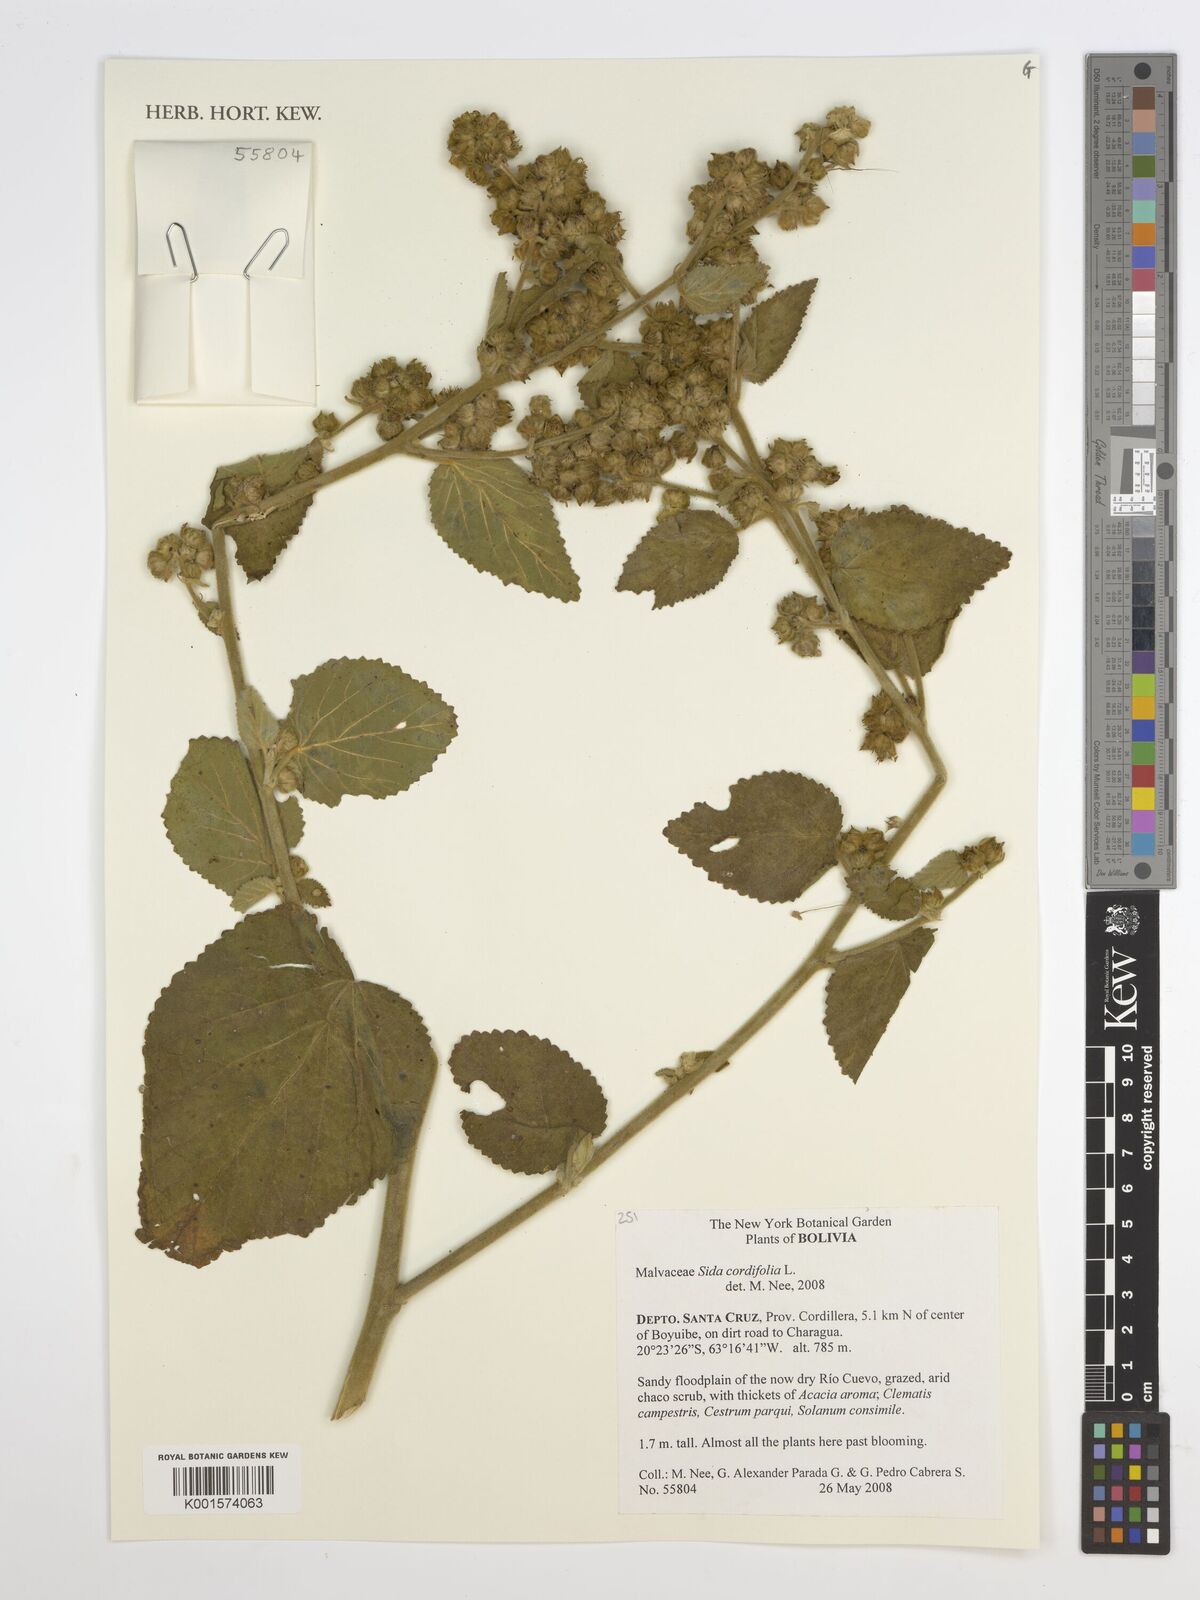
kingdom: Plantae
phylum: Tracheophyta
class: Magnoliopsida
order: Malvales
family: Malvaceae
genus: Sida
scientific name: Sida cordifolia
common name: Ilima
